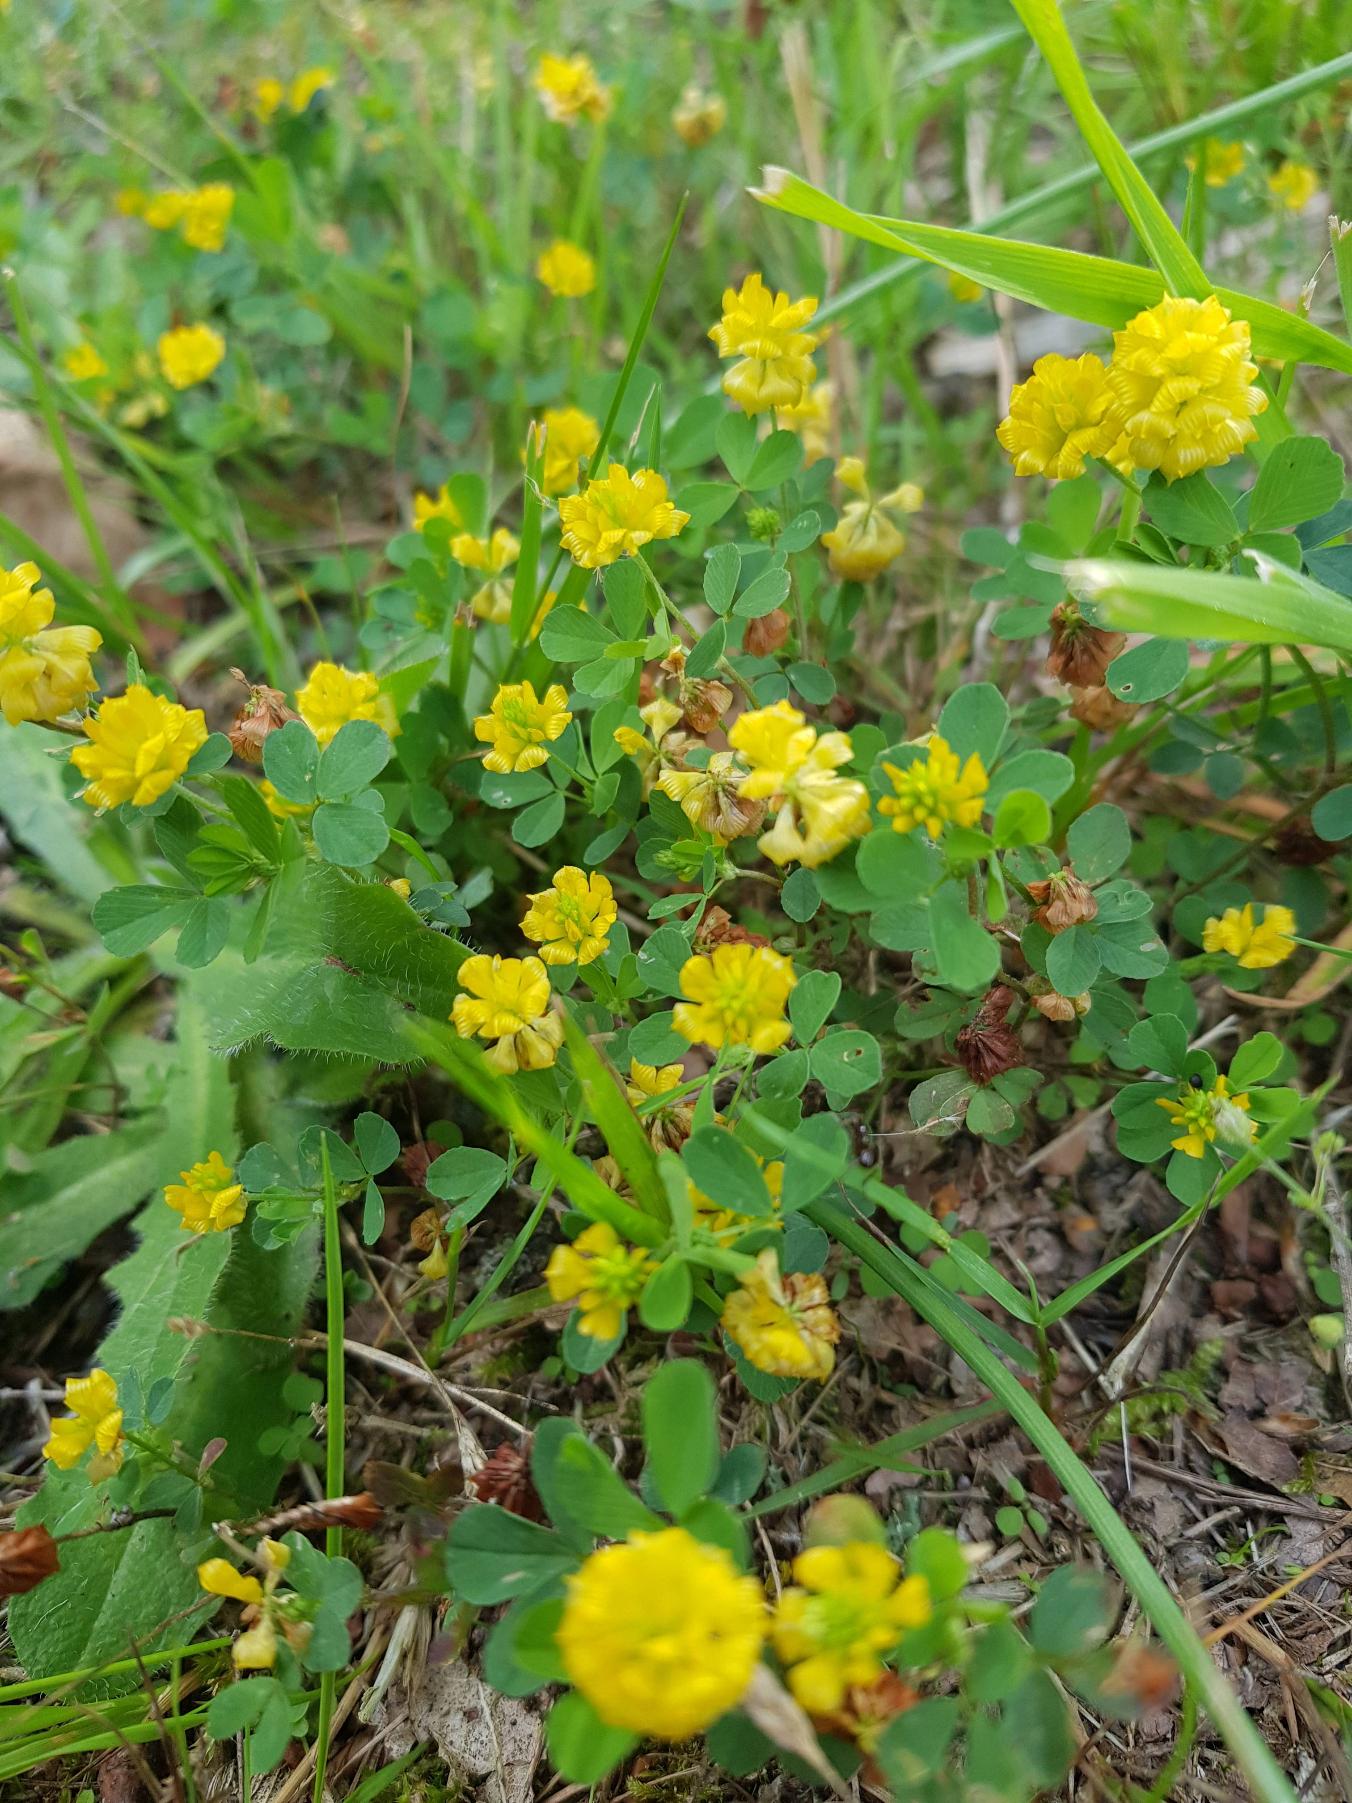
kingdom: Plantae
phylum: Tracheophyta
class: Magnoliopsida
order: Fabales
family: Fabaceae
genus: Trifolium
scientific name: Trifolium campestre
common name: Gul kløver
